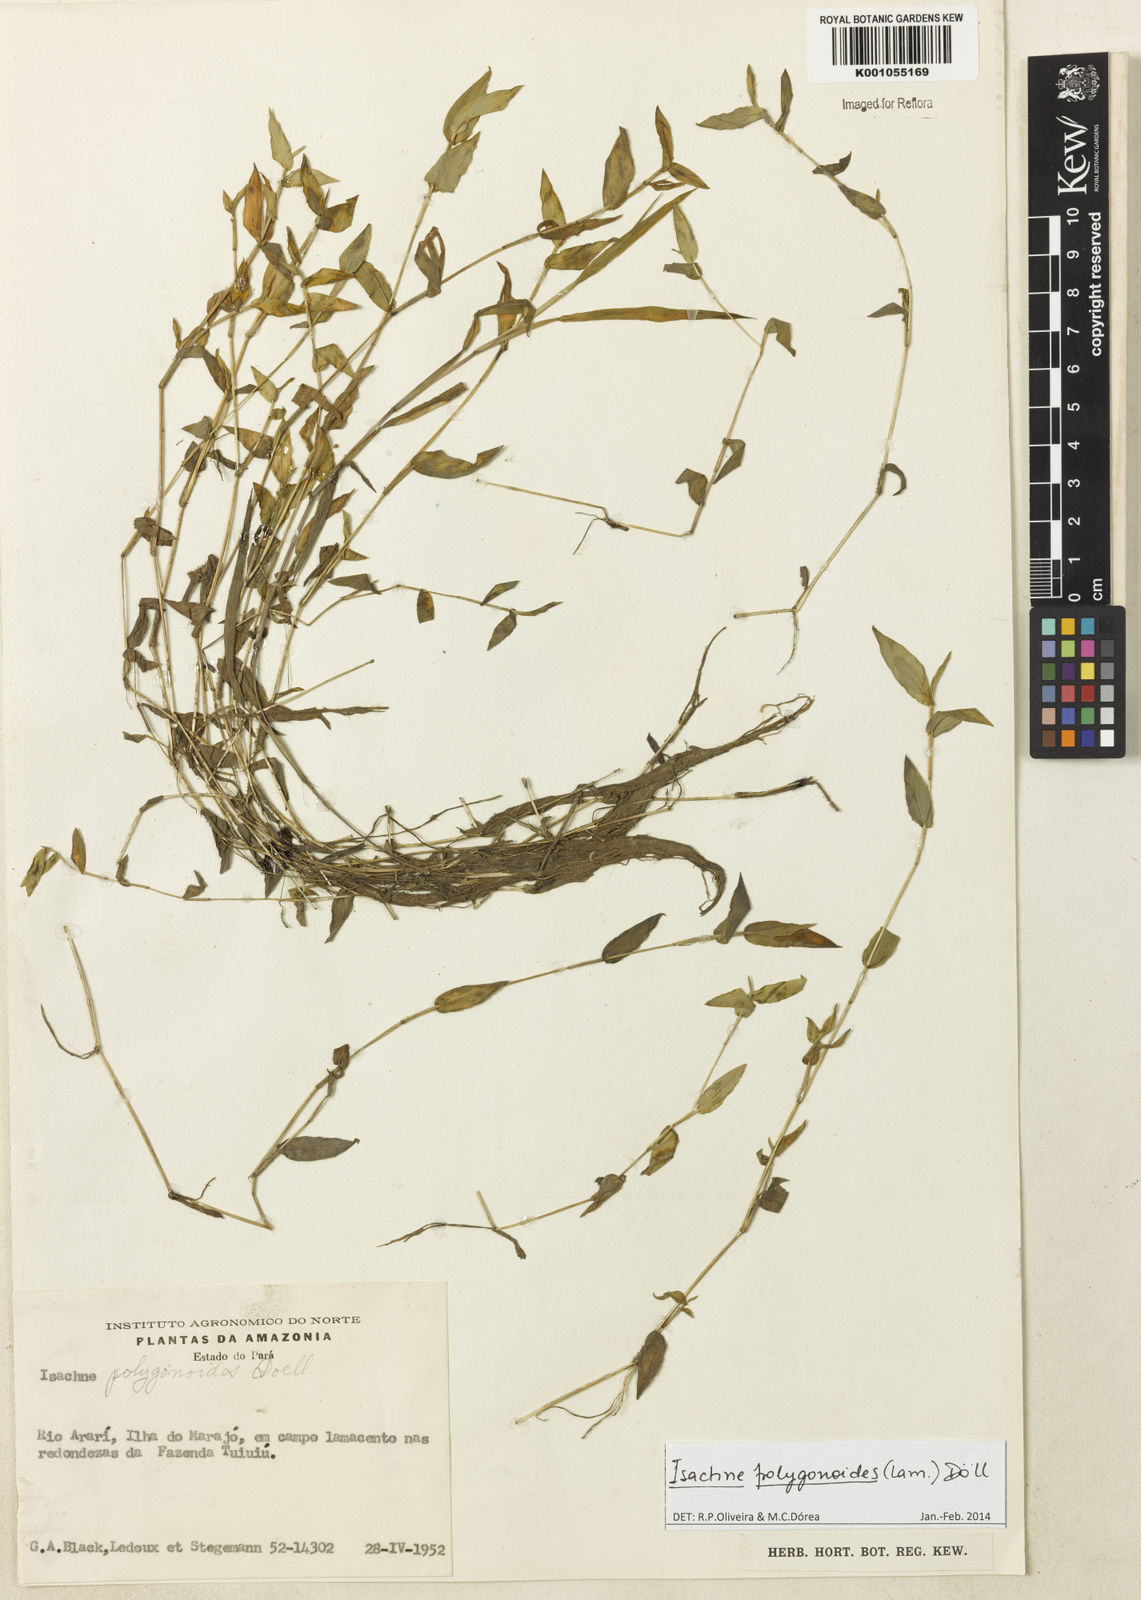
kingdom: Plantae
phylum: Tracheophyta
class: Liliopsida
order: Poales
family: Poaceae
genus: Isachne
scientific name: Isachne
